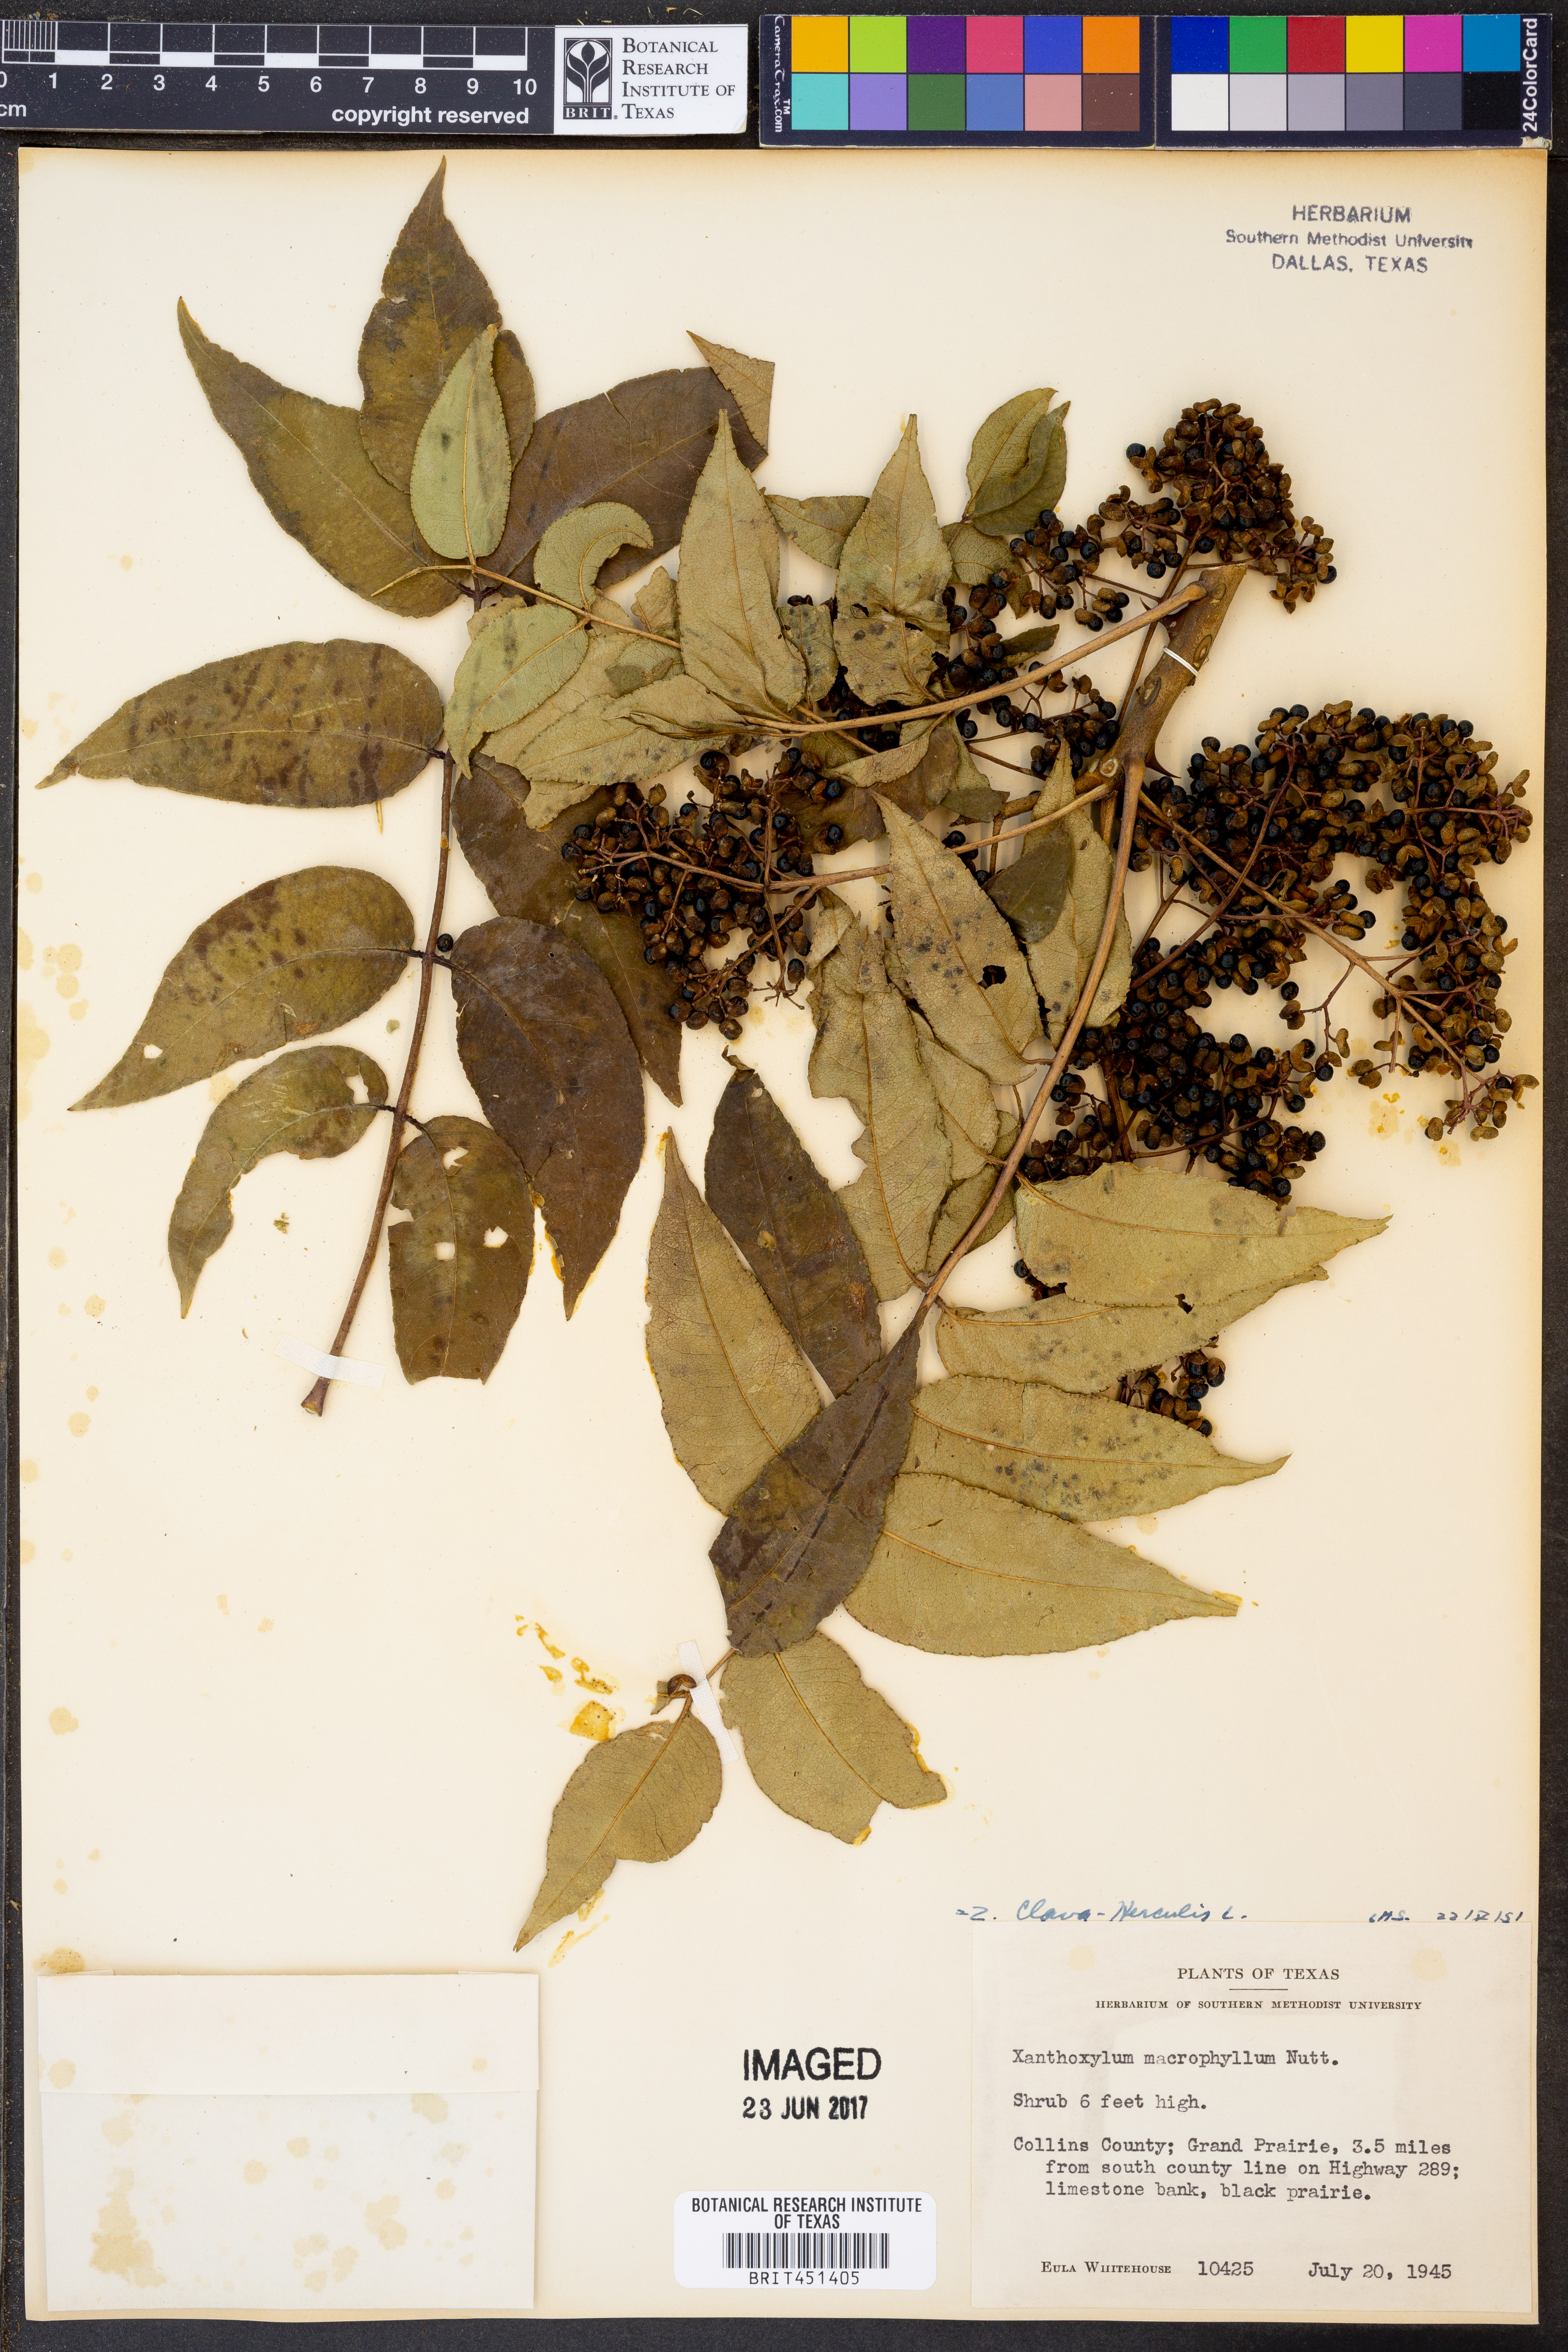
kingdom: Plantae
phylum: Tracheophyta
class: Magnoliopsida
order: Sapindales
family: Rutaceae
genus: Zanthoxylum
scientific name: Zanthoxylum avicennae
